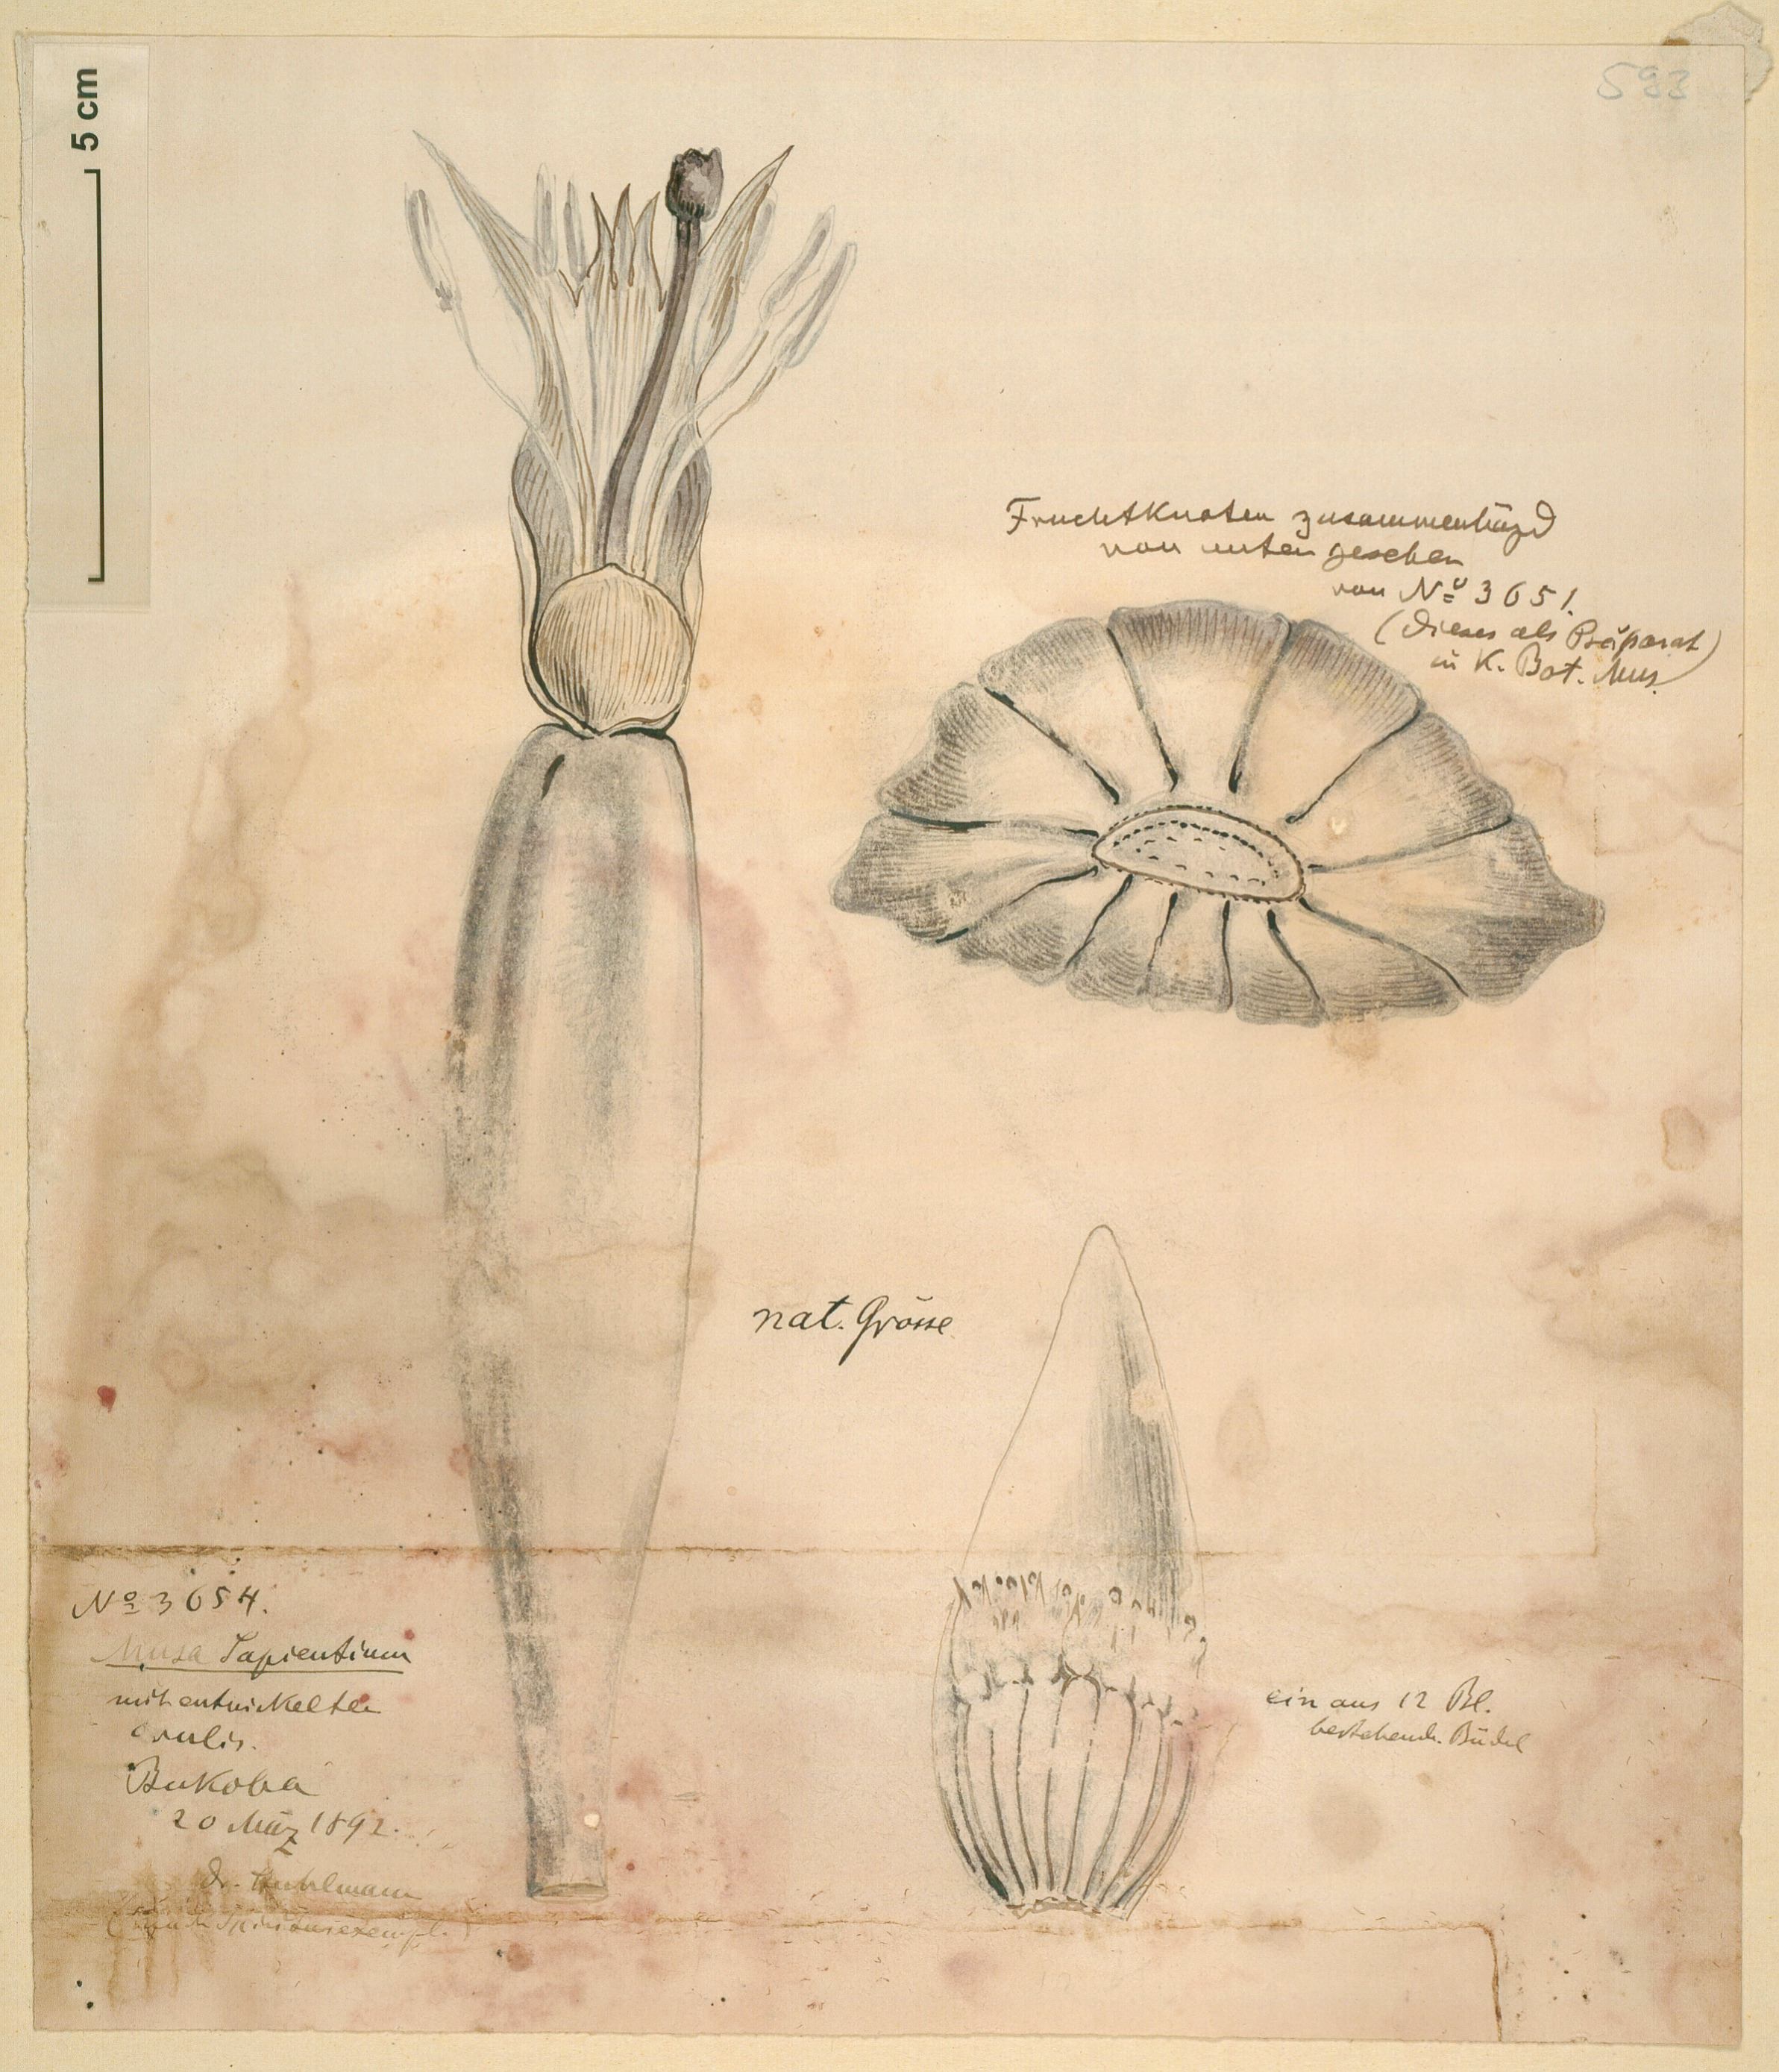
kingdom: Plantae
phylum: Tracheophyta
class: Liliopsida
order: Zingiberales
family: Musaceae
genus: Musa
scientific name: Musa paradisiaca
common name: French plantain
